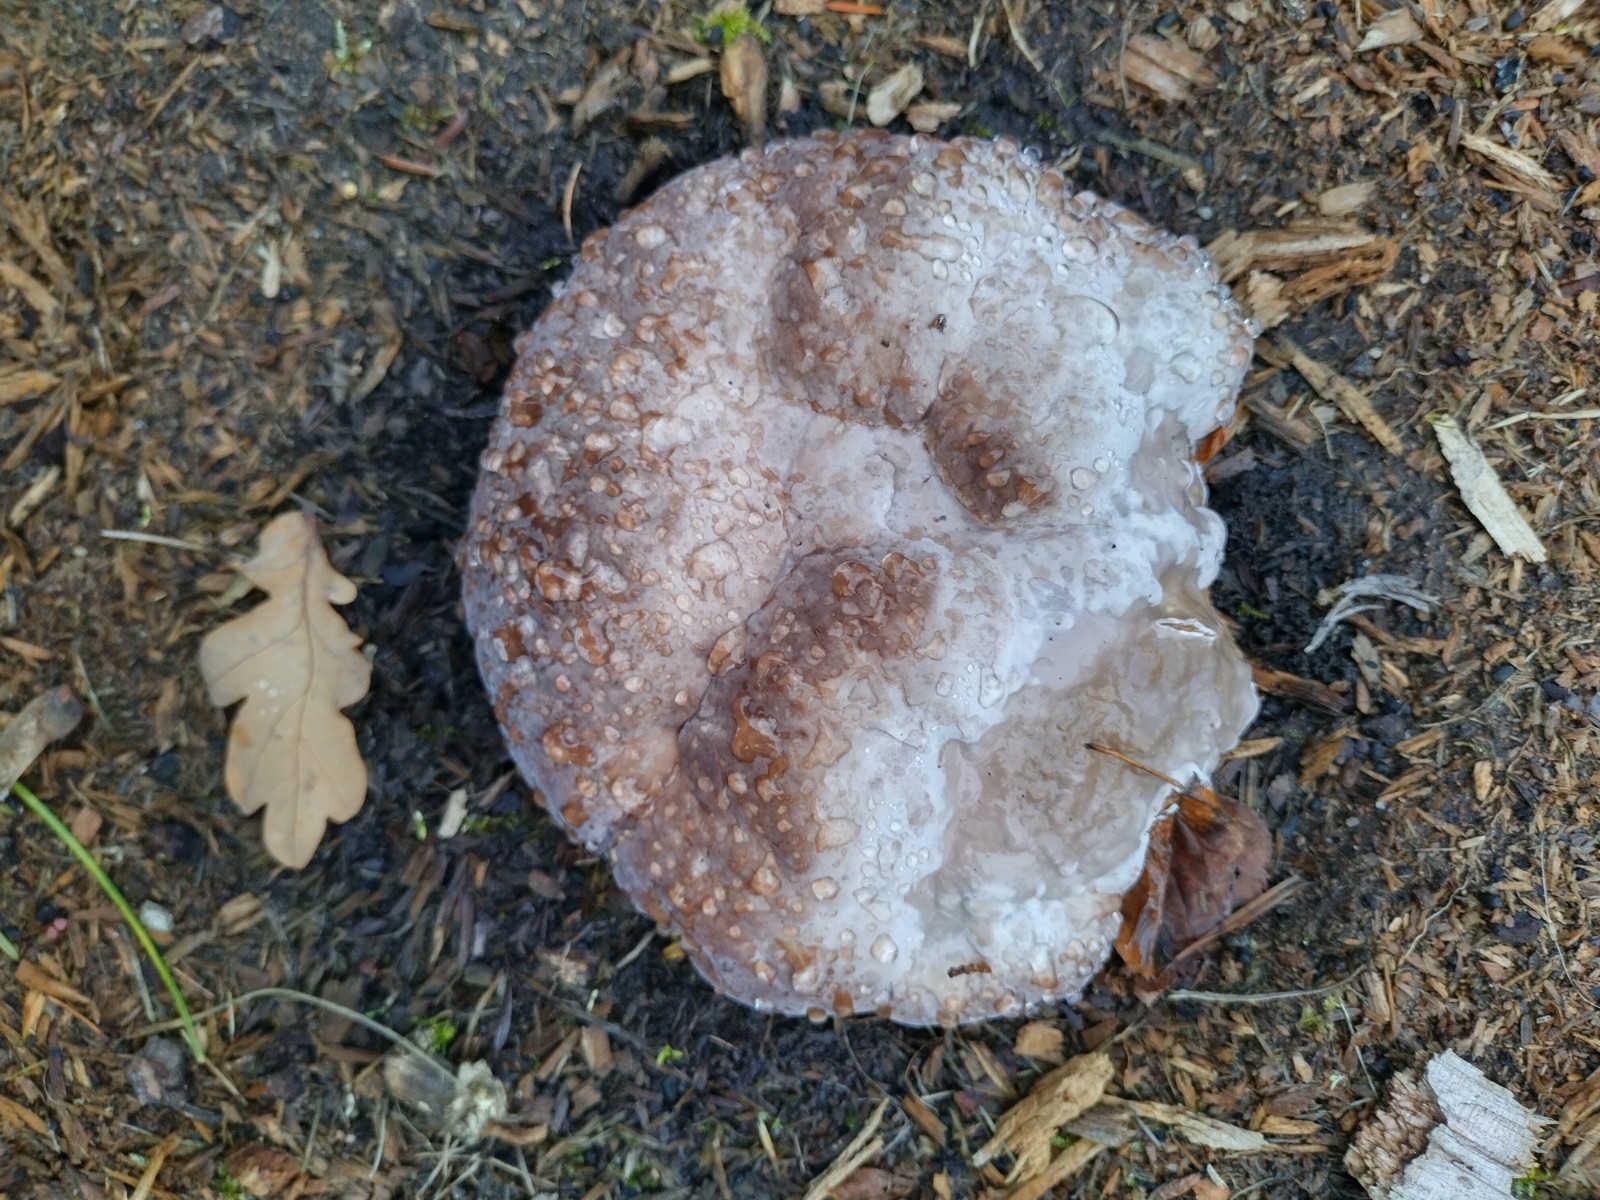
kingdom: Fungi
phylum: Basidiomycota
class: Agaricomycetes
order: Polyporales
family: Fomitopsidaceae
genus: Fomitopsis
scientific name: Fomitopsis pinicola
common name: randbæltet hovporesvamp
